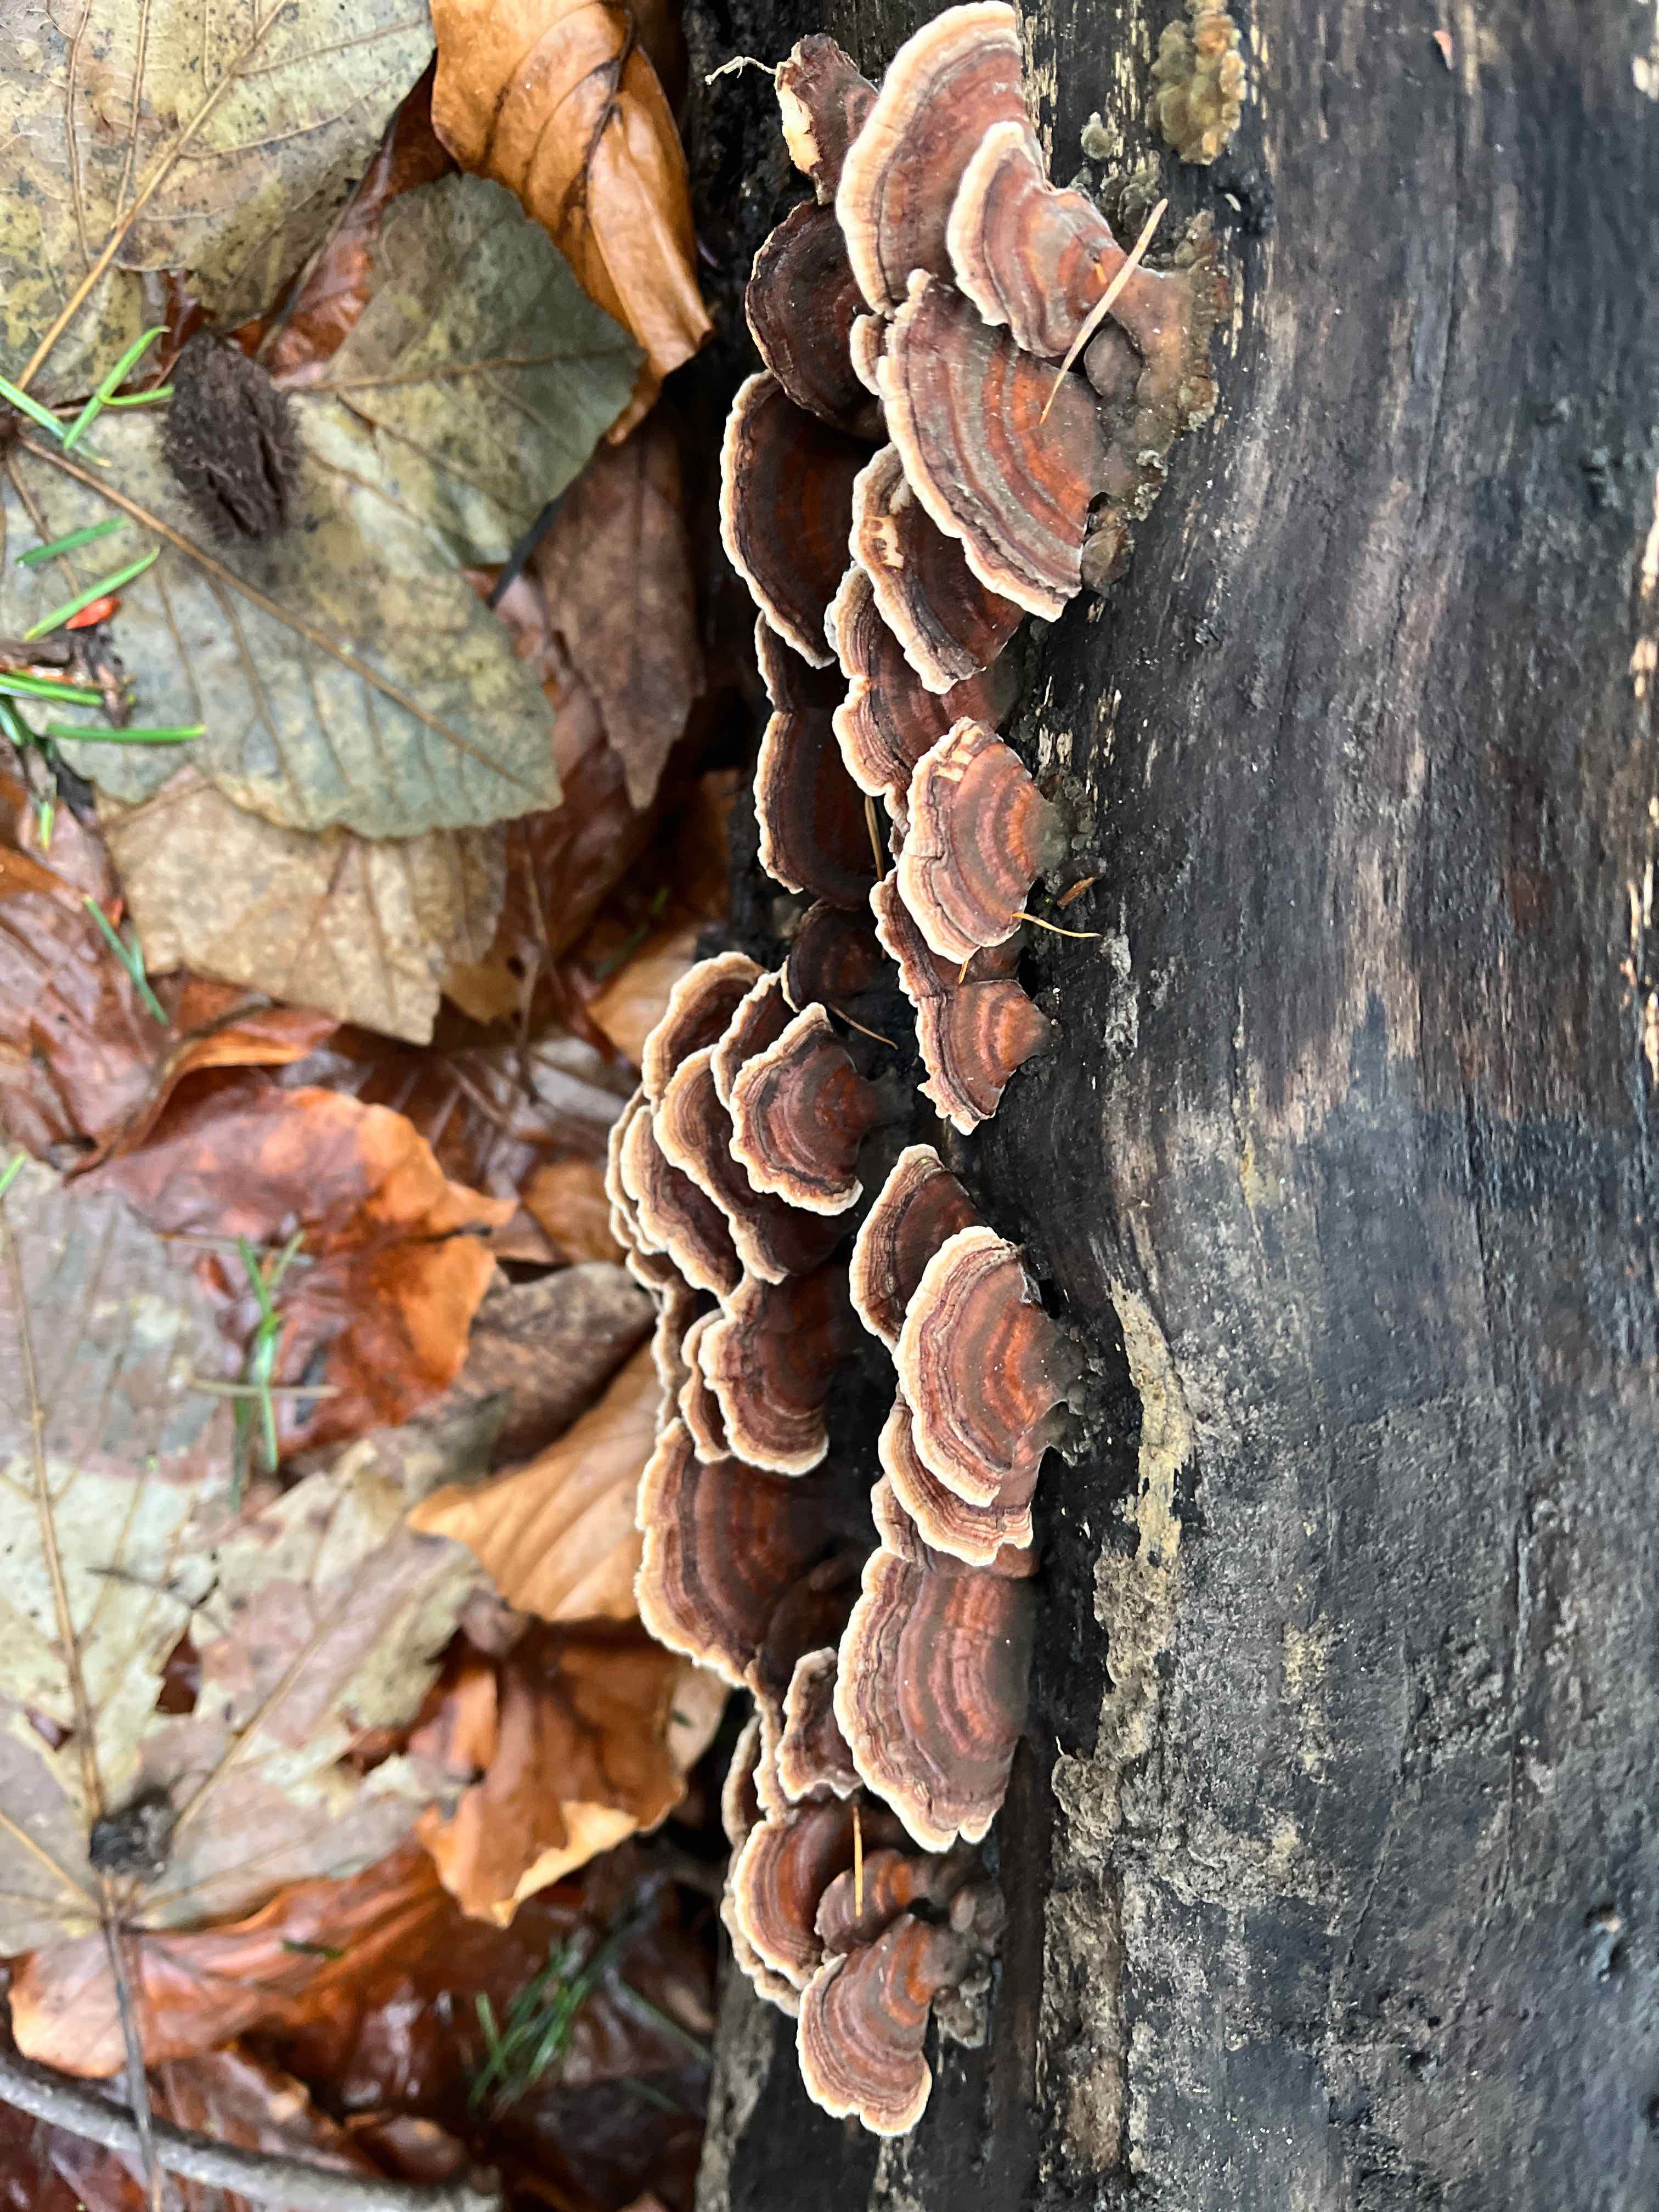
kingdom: Fungi
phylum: Basidiomycota
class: Agaricomycetes
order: Russulales
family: Stereaceae
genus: Stereum
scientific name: Stereum subtomentosum
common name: smuk lædersvamp
